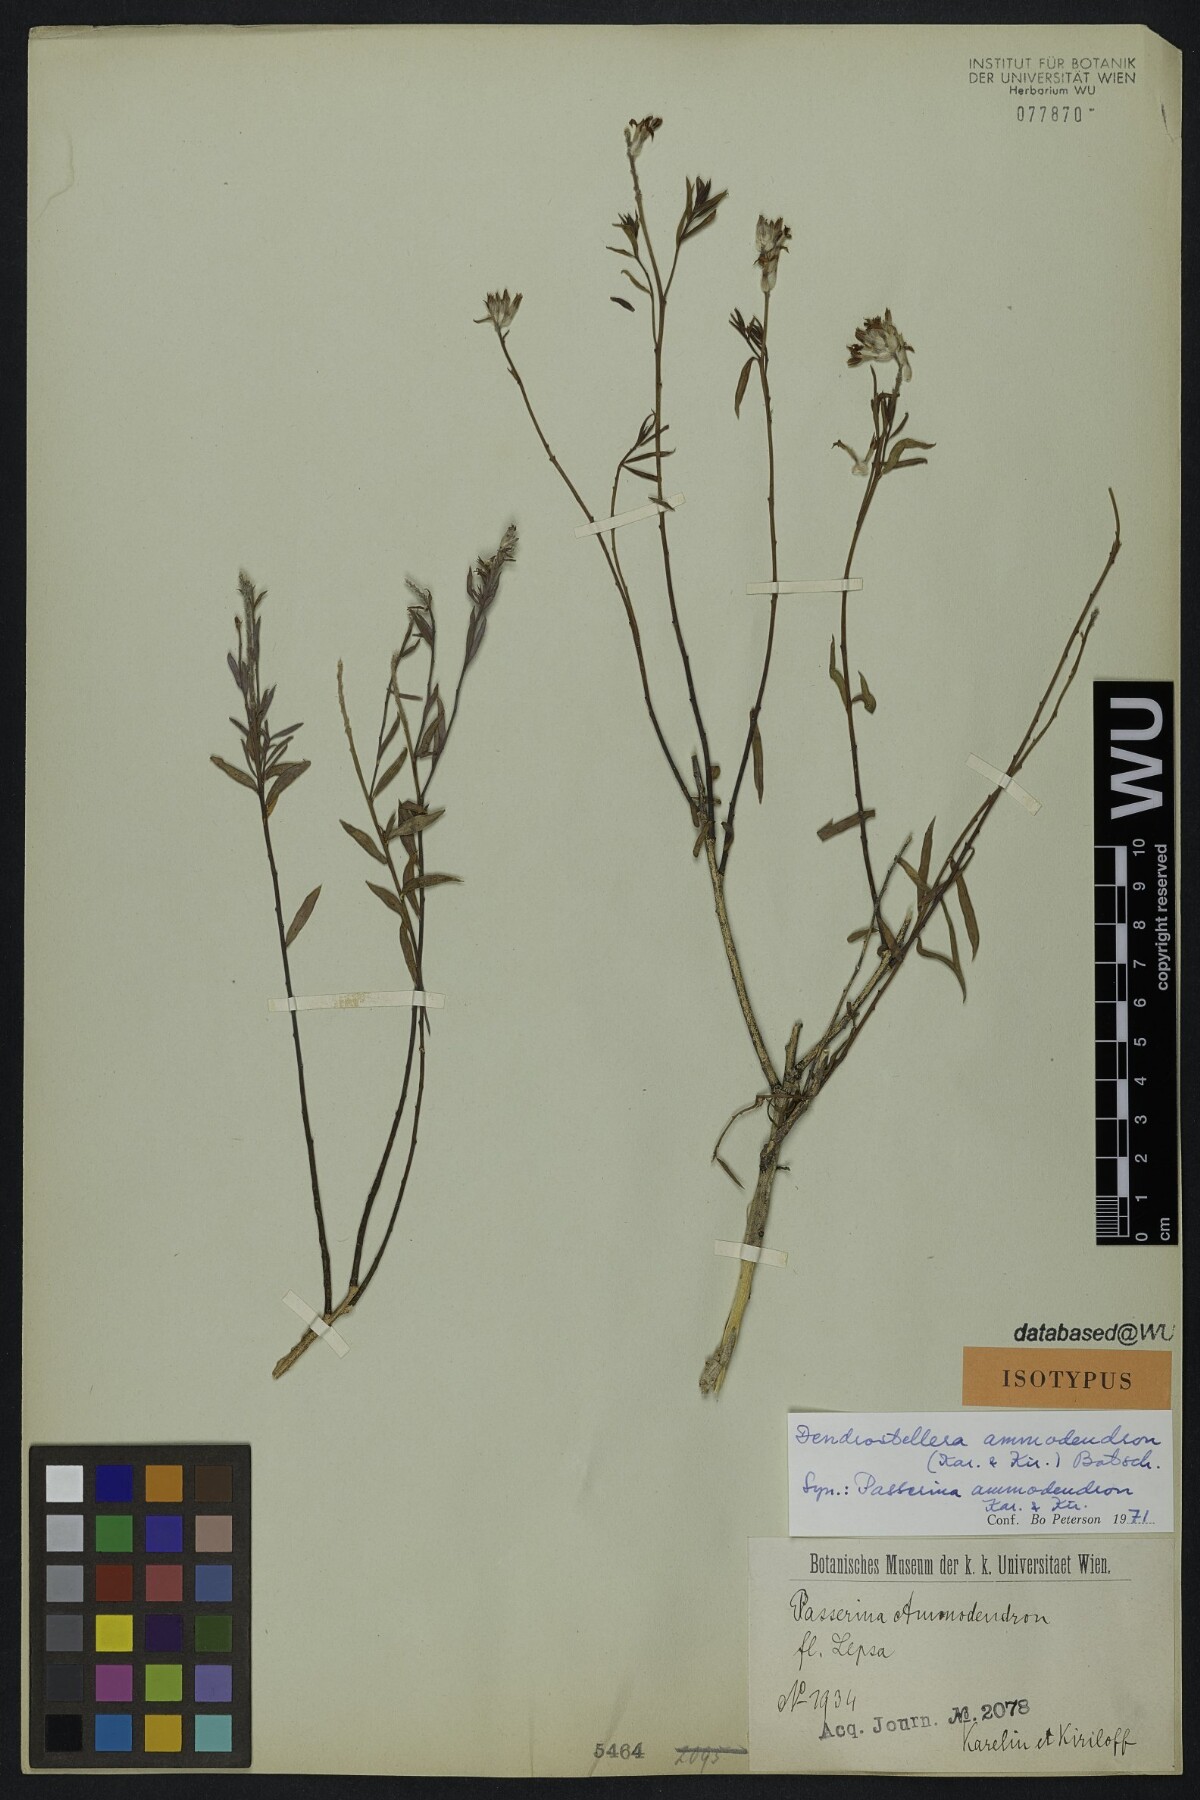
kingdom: Plantae
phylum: Tracheophyta
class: Magnoliopsida
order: Malvales
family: Thymelaeaceae
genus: Diarthron
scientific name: Diarthron ammodendron
